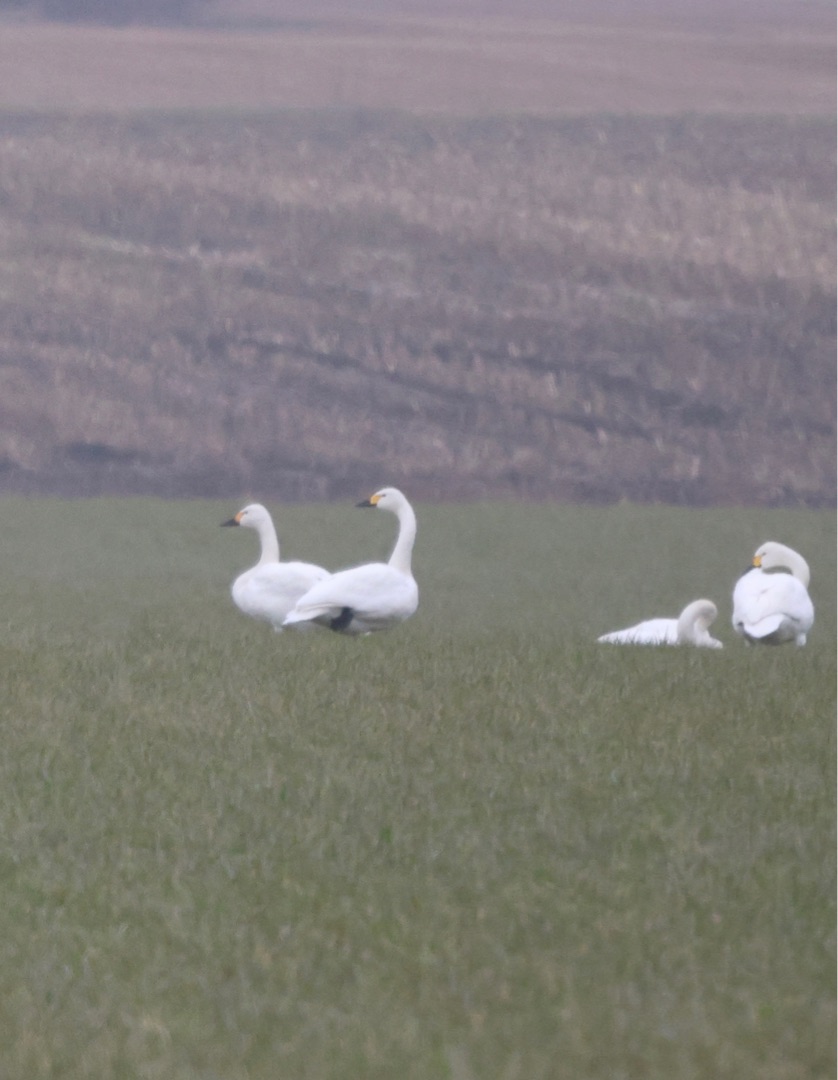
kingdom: Animalia
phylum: Chordata
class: Aves
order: Anseriformes
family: Anatidae
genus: Cygnus
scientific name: Cygnus columbianus
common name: Pibesvane
